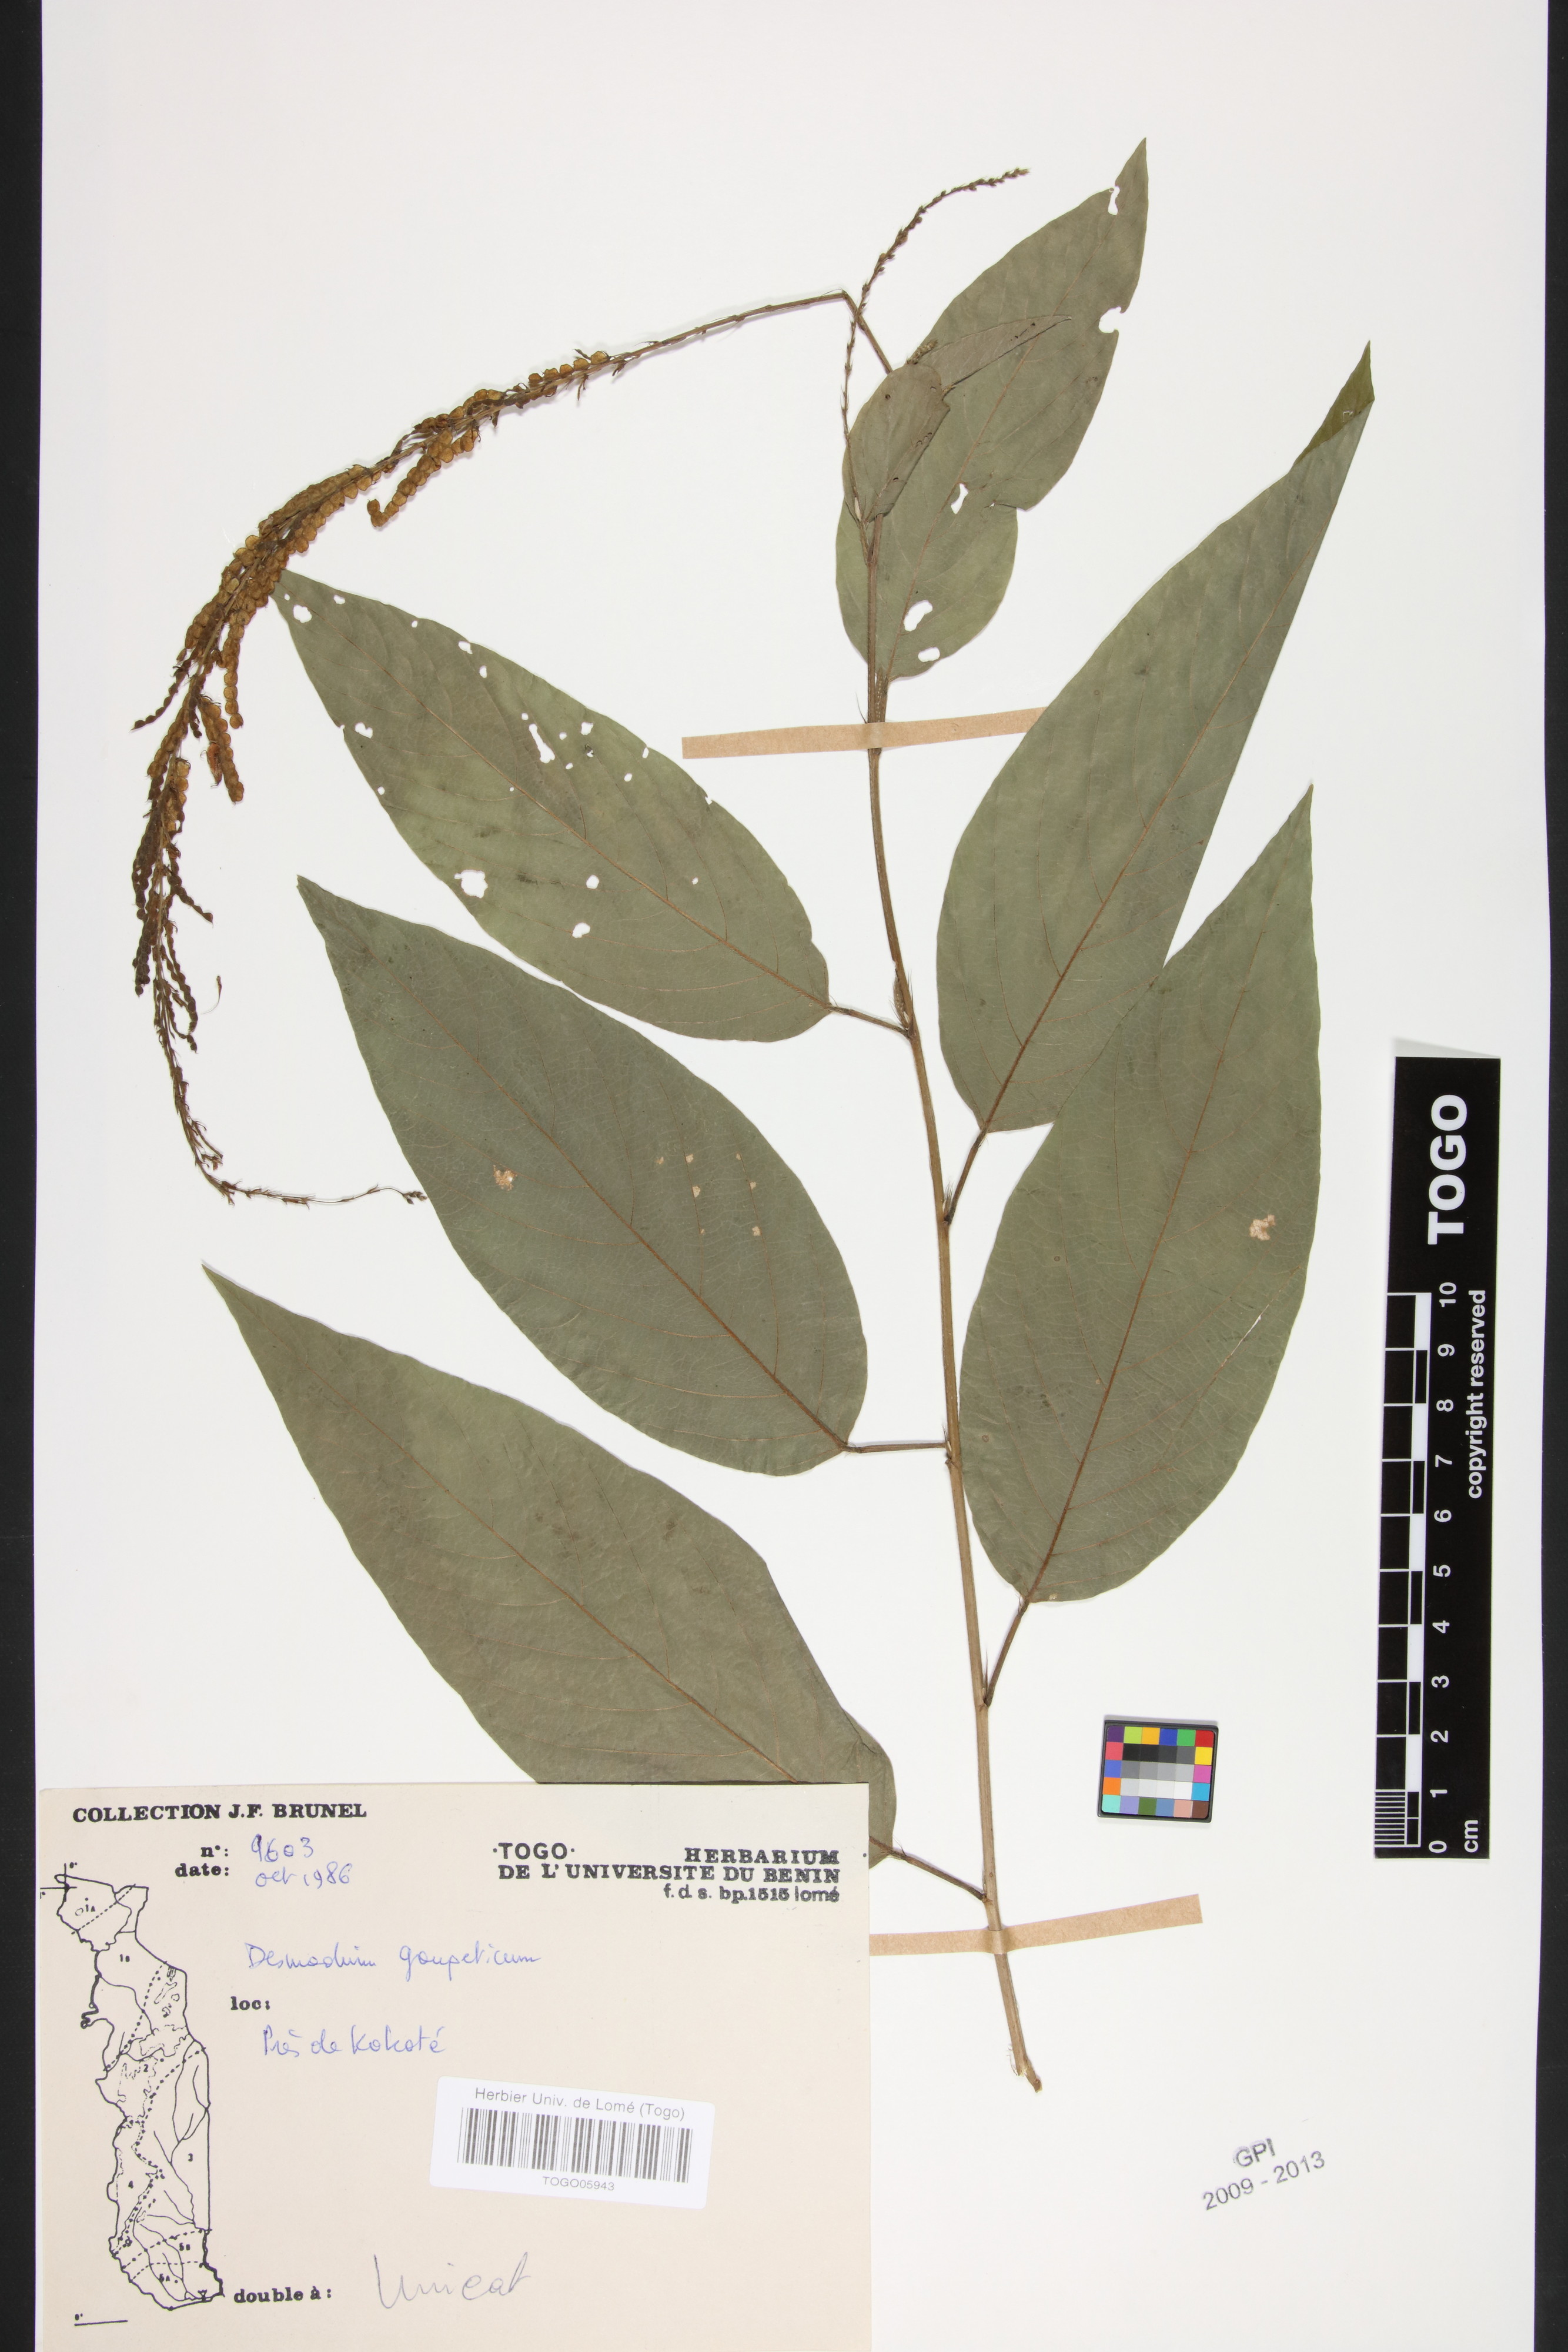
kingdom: Plantae
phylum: Tracheophyta
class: Magnoliopsida
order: Fabales
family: Fabaceae
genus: Pleurolobus
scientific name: Pleurolobus gangeticus
